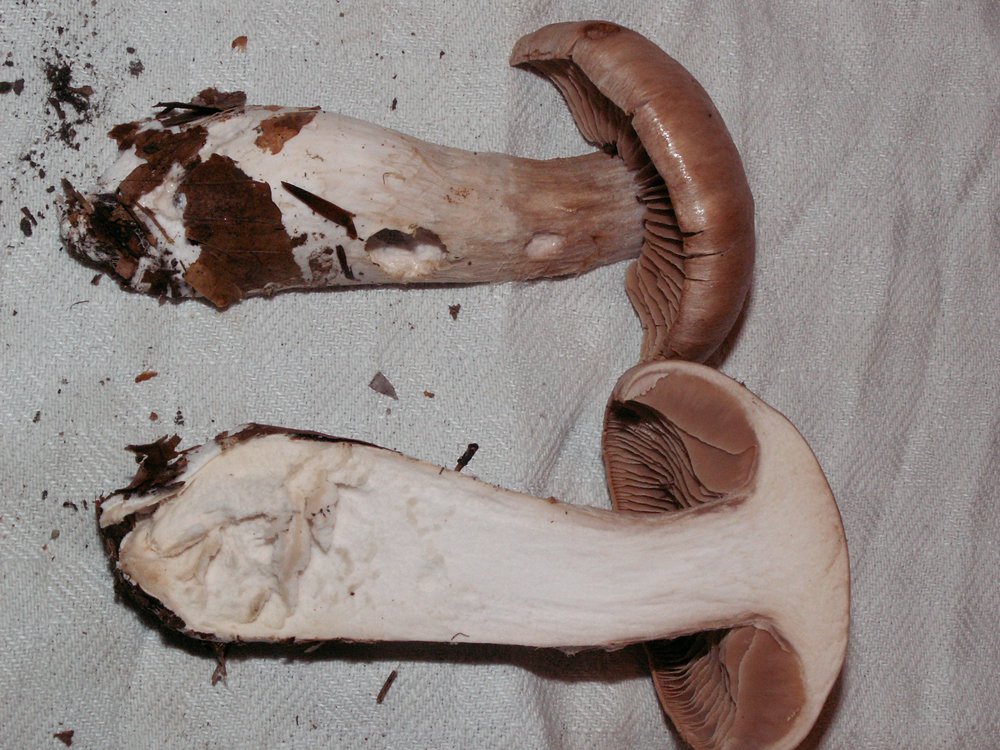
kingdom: Fungi
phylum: Basidiomycota
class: Agaricomycetes
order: Agaricales
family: Cortinariaceae
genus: Cortinarius
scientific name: Cortinarius
